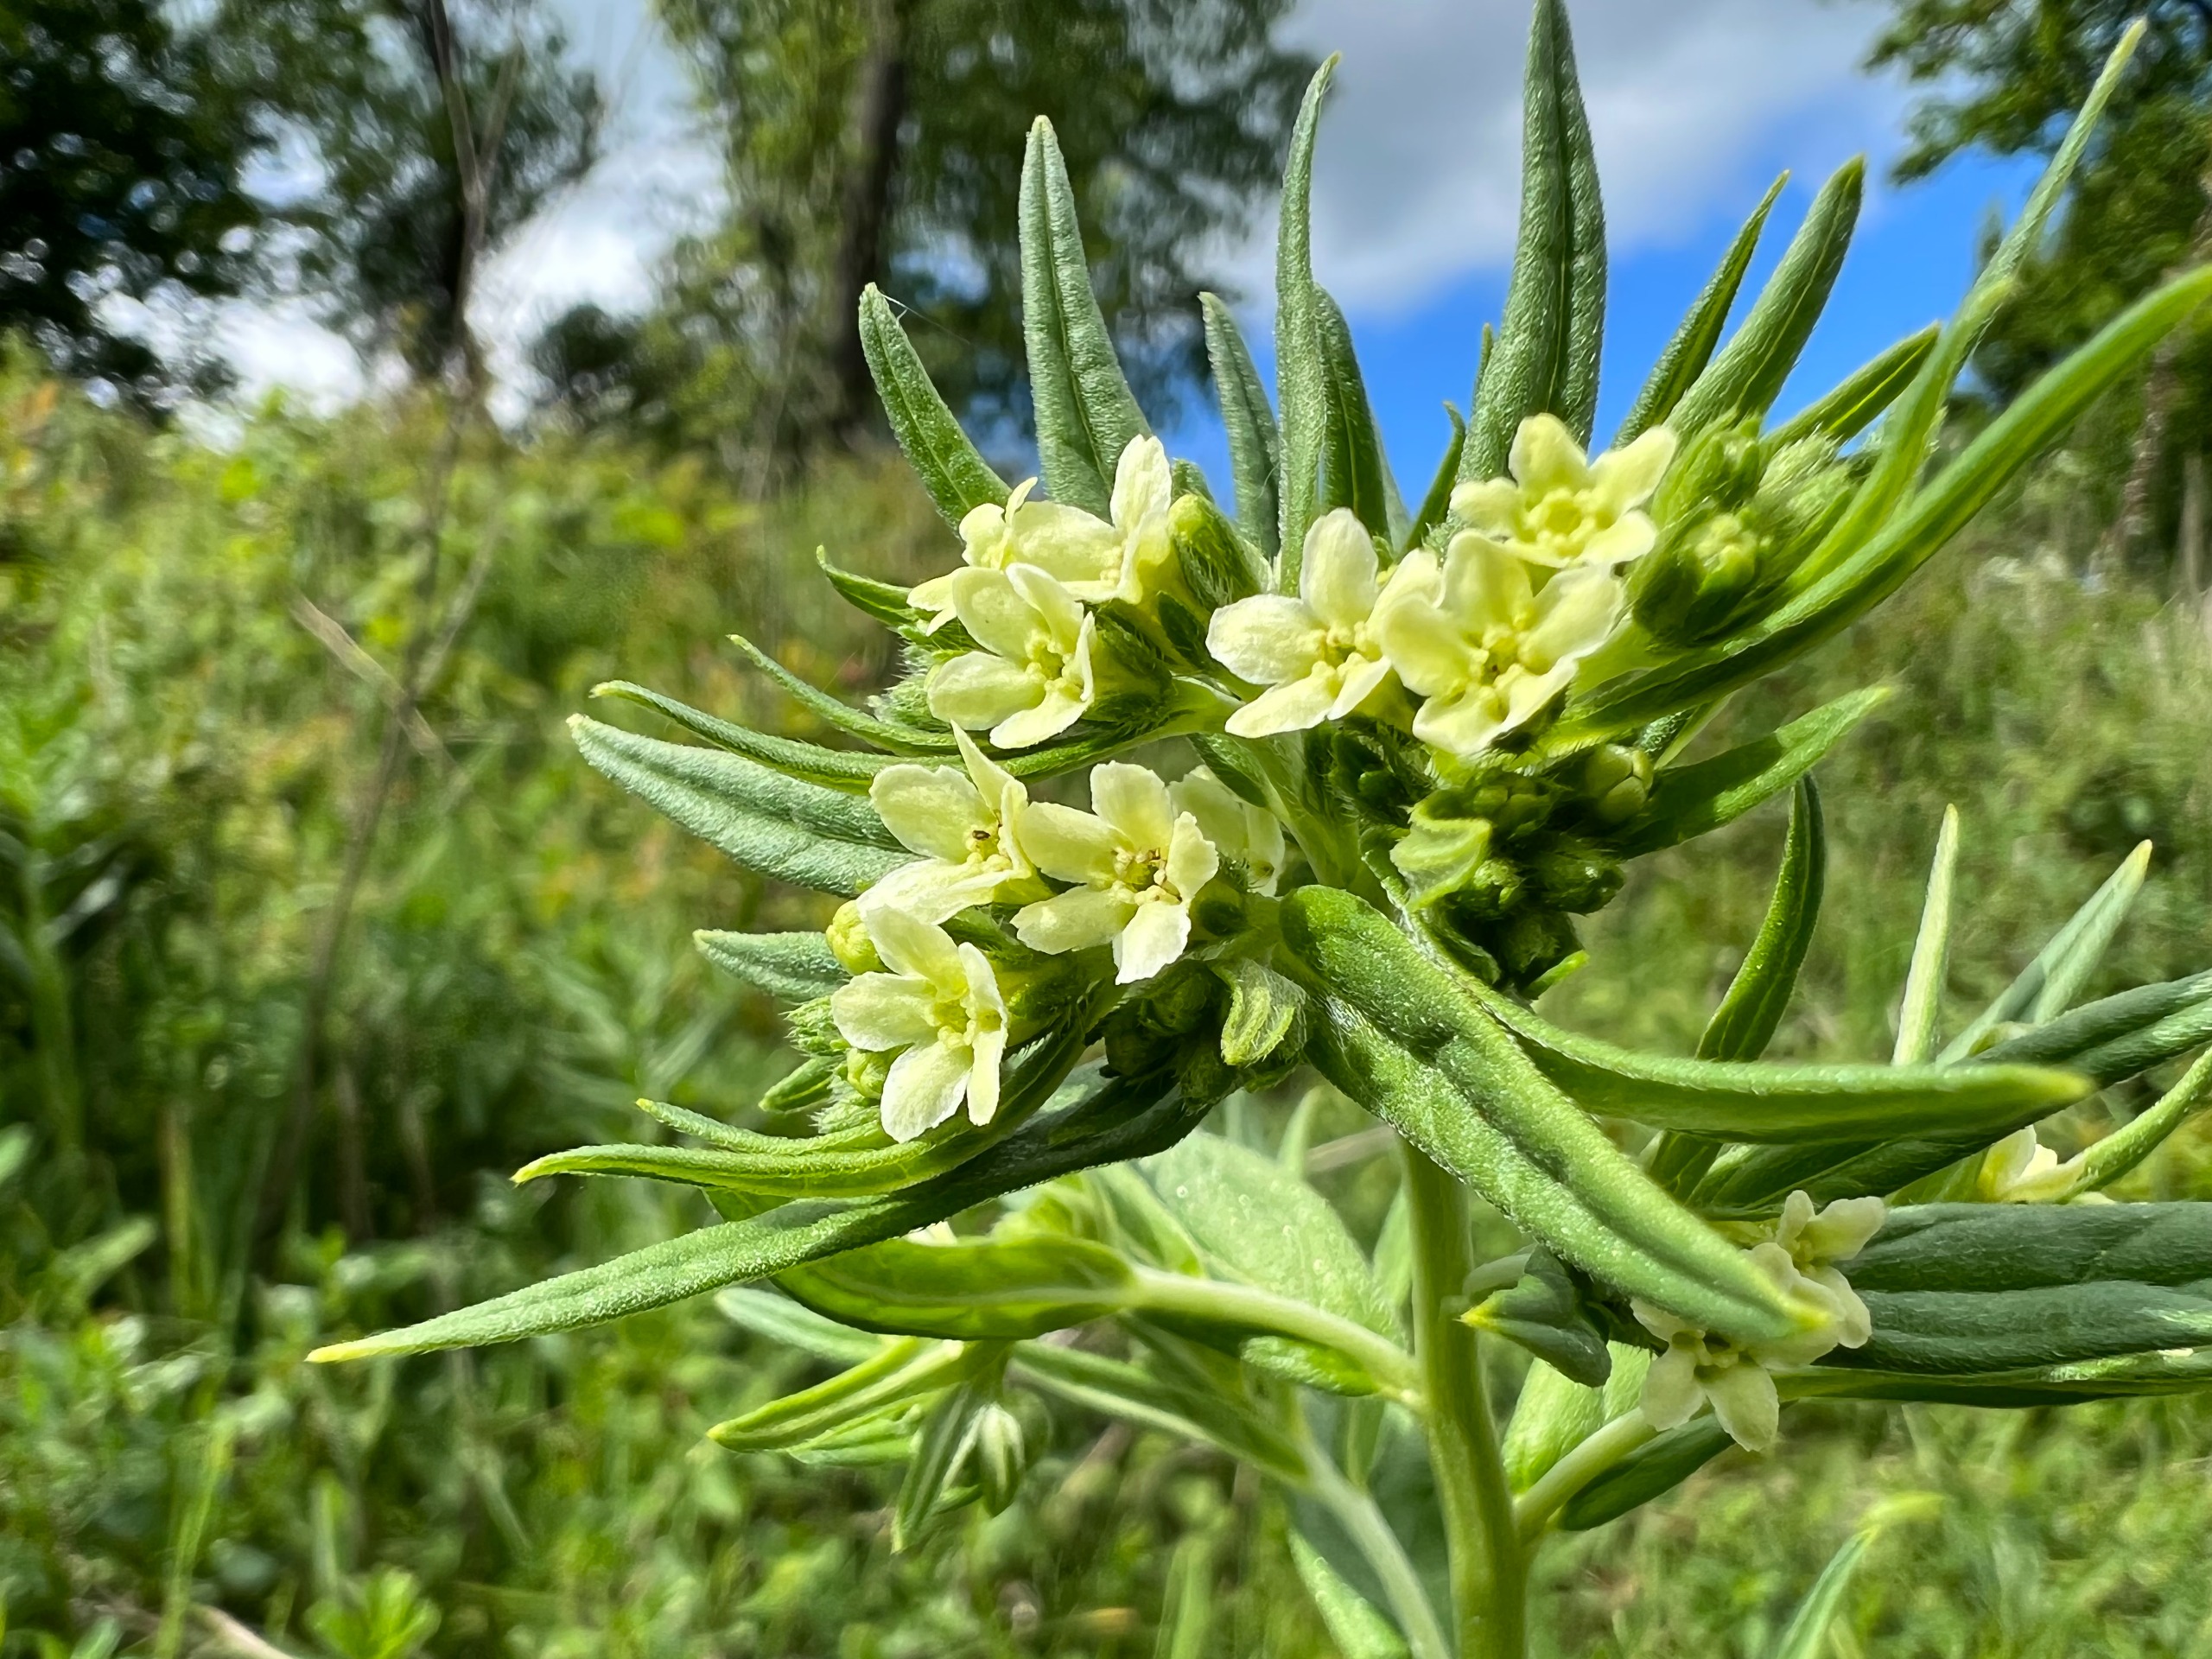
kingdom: Plantae
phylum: Tracheophyta
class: Magnoliopsida
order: Boraginales
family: Boraginaceae
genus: Lithospermum
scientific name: Lithospermum officinale
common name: Læge-stenfrø
